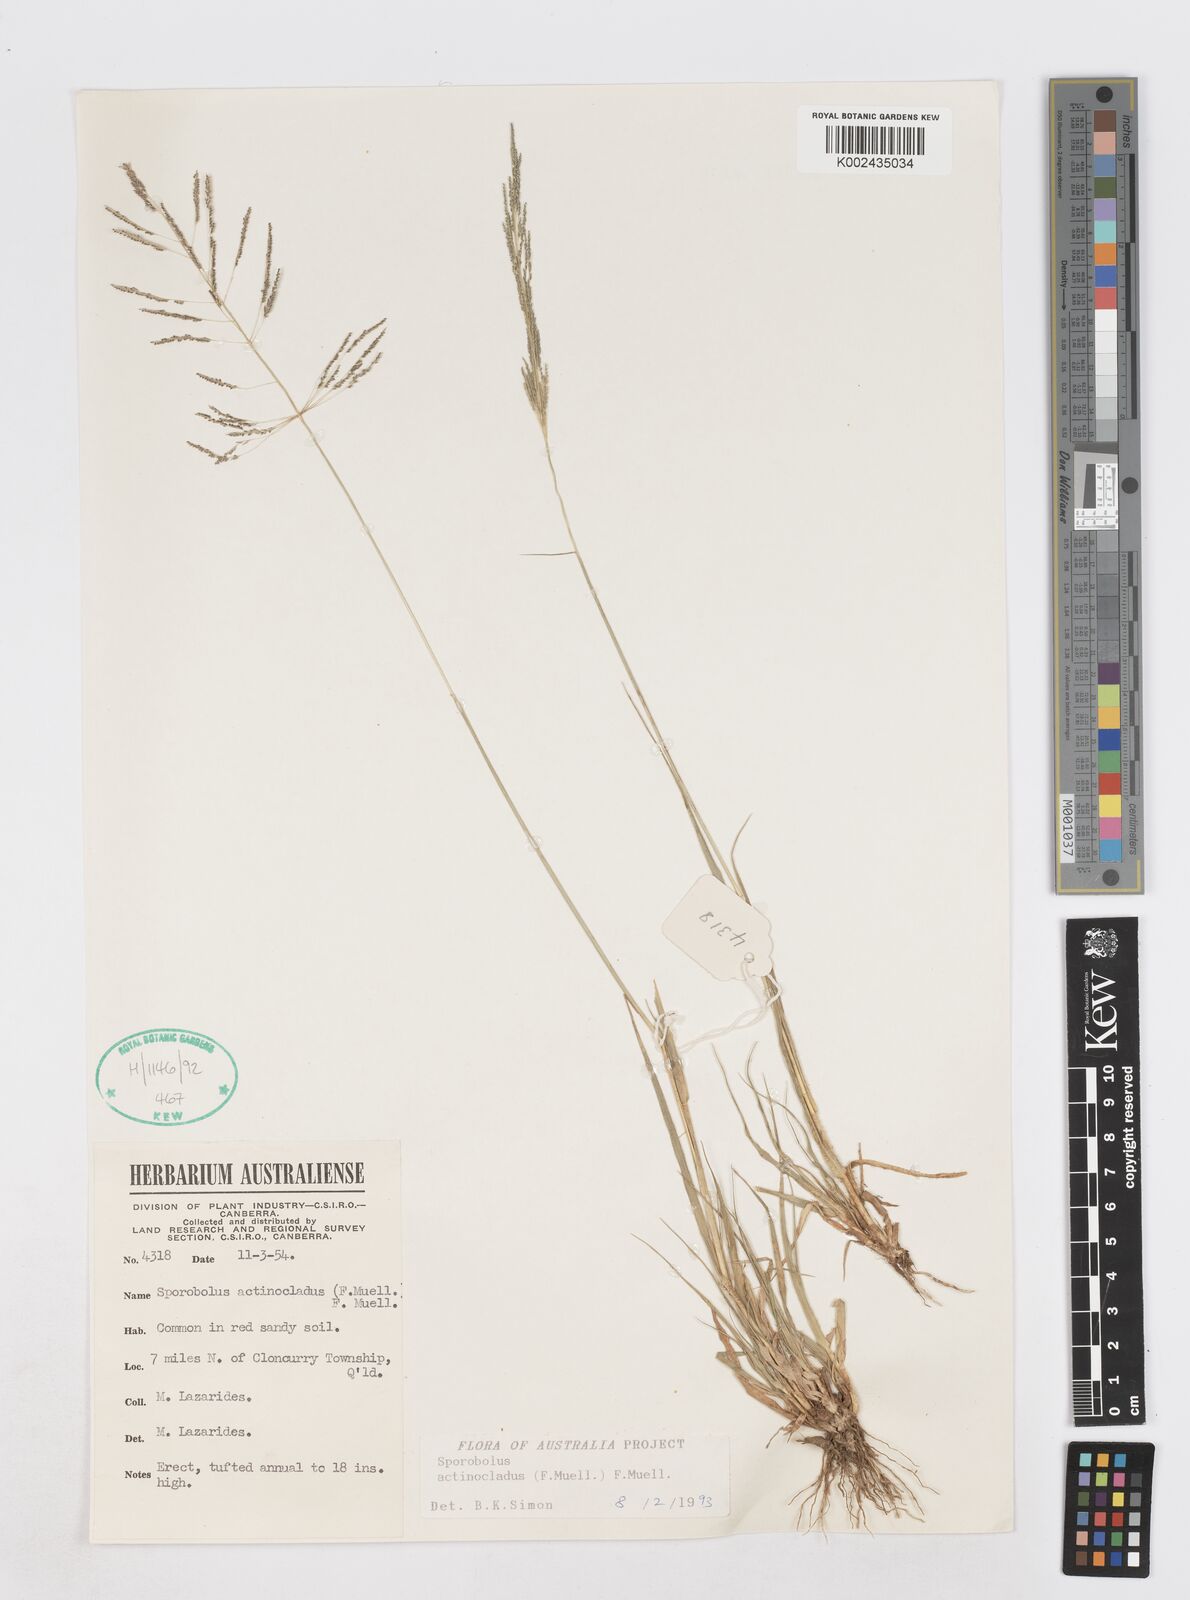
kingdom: Plantae
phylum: Tracheophyta
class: Liliopsida
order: Poales
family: Poaceae
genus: Sporobolus
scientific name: Sporobolus actinocladus
